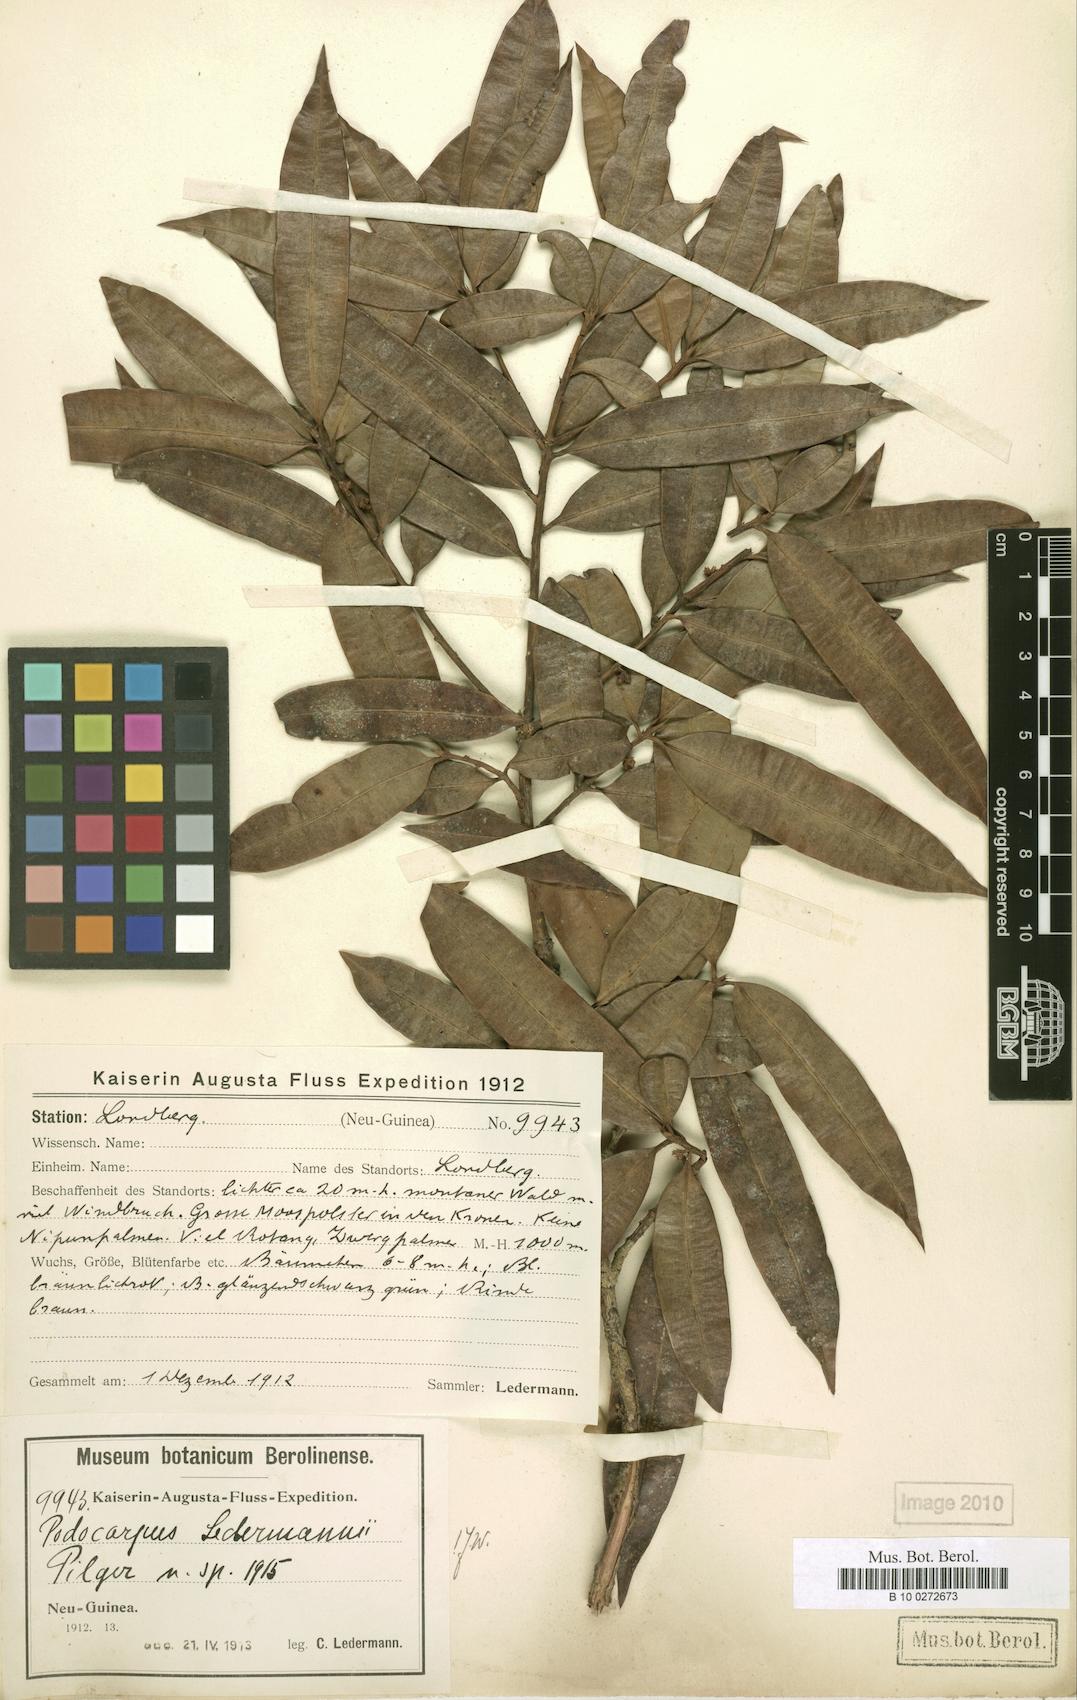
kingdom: Plantae
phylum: Tracheophyta
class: Pinopsida
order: Pinales
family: Podocarpaceae
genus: Podocarpus
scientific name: Podocarpus ledermannii
